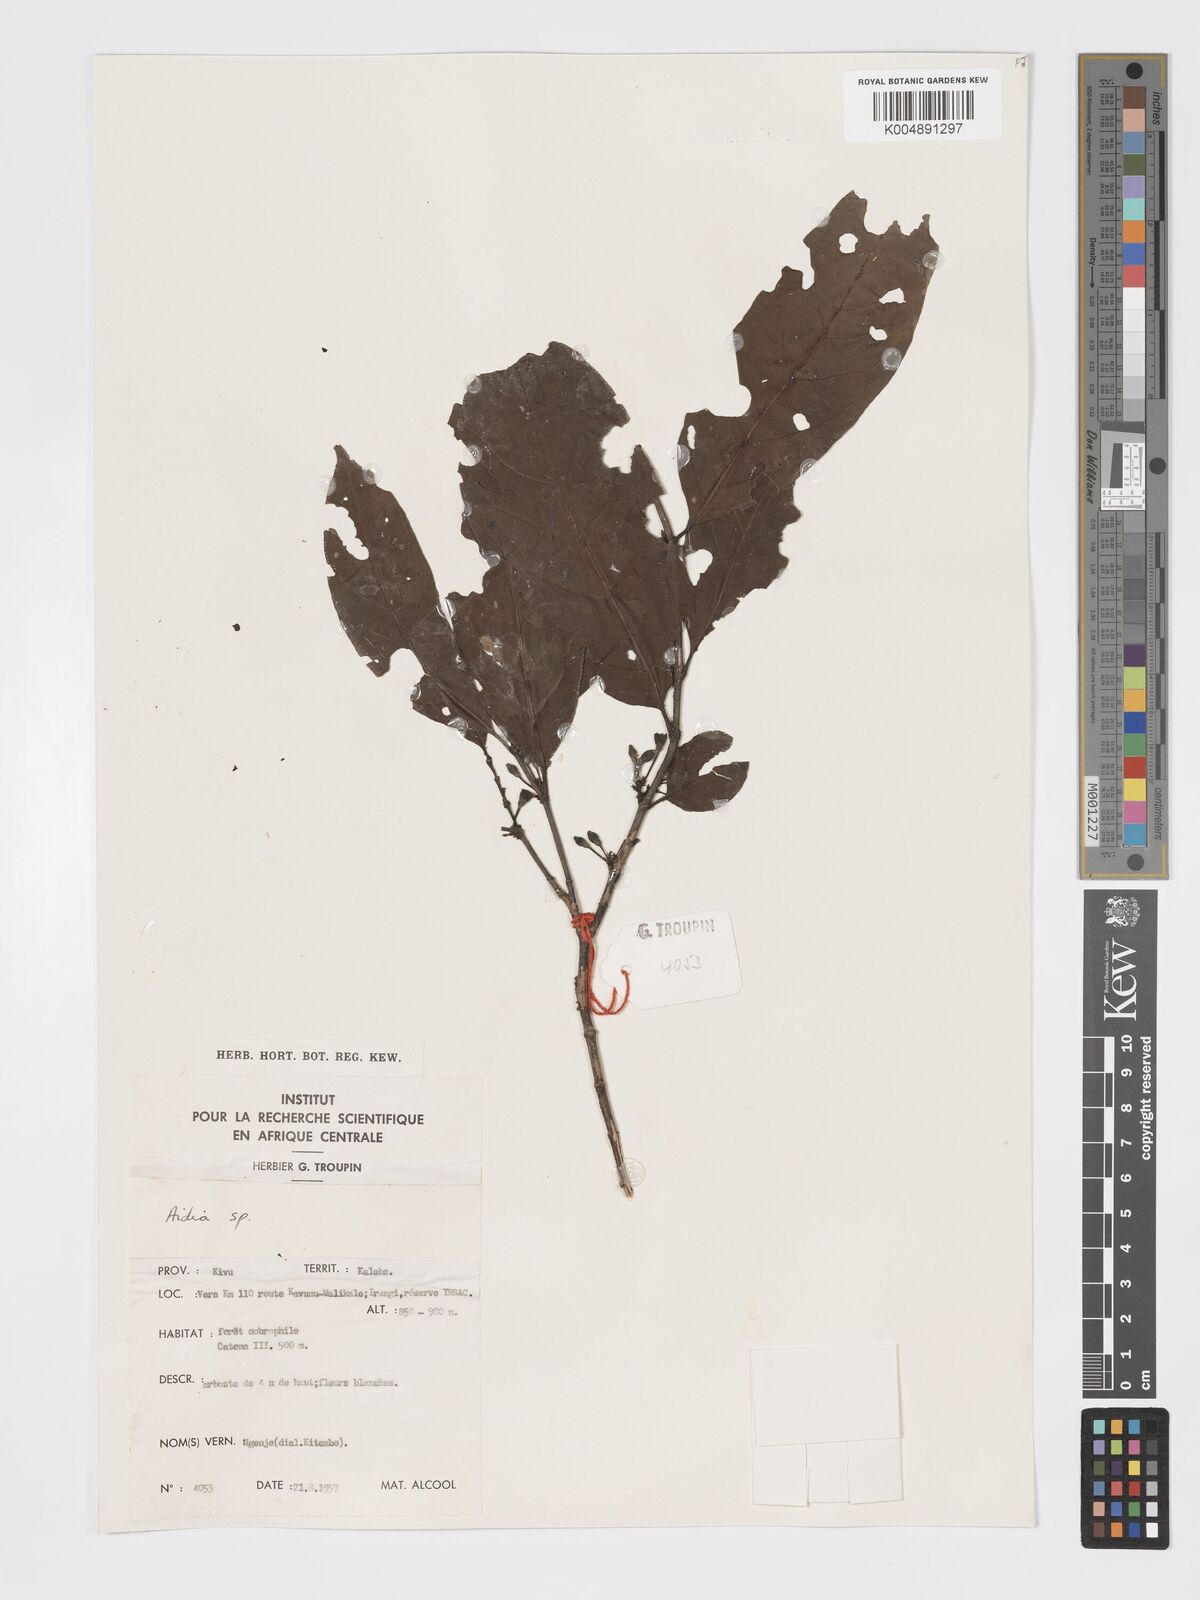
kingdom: Plantae
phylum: Tracheophyta
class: Magnoliopsida
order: Gentianales
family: Rubiaceae
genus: Aidia
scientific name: Aidia micrantha
